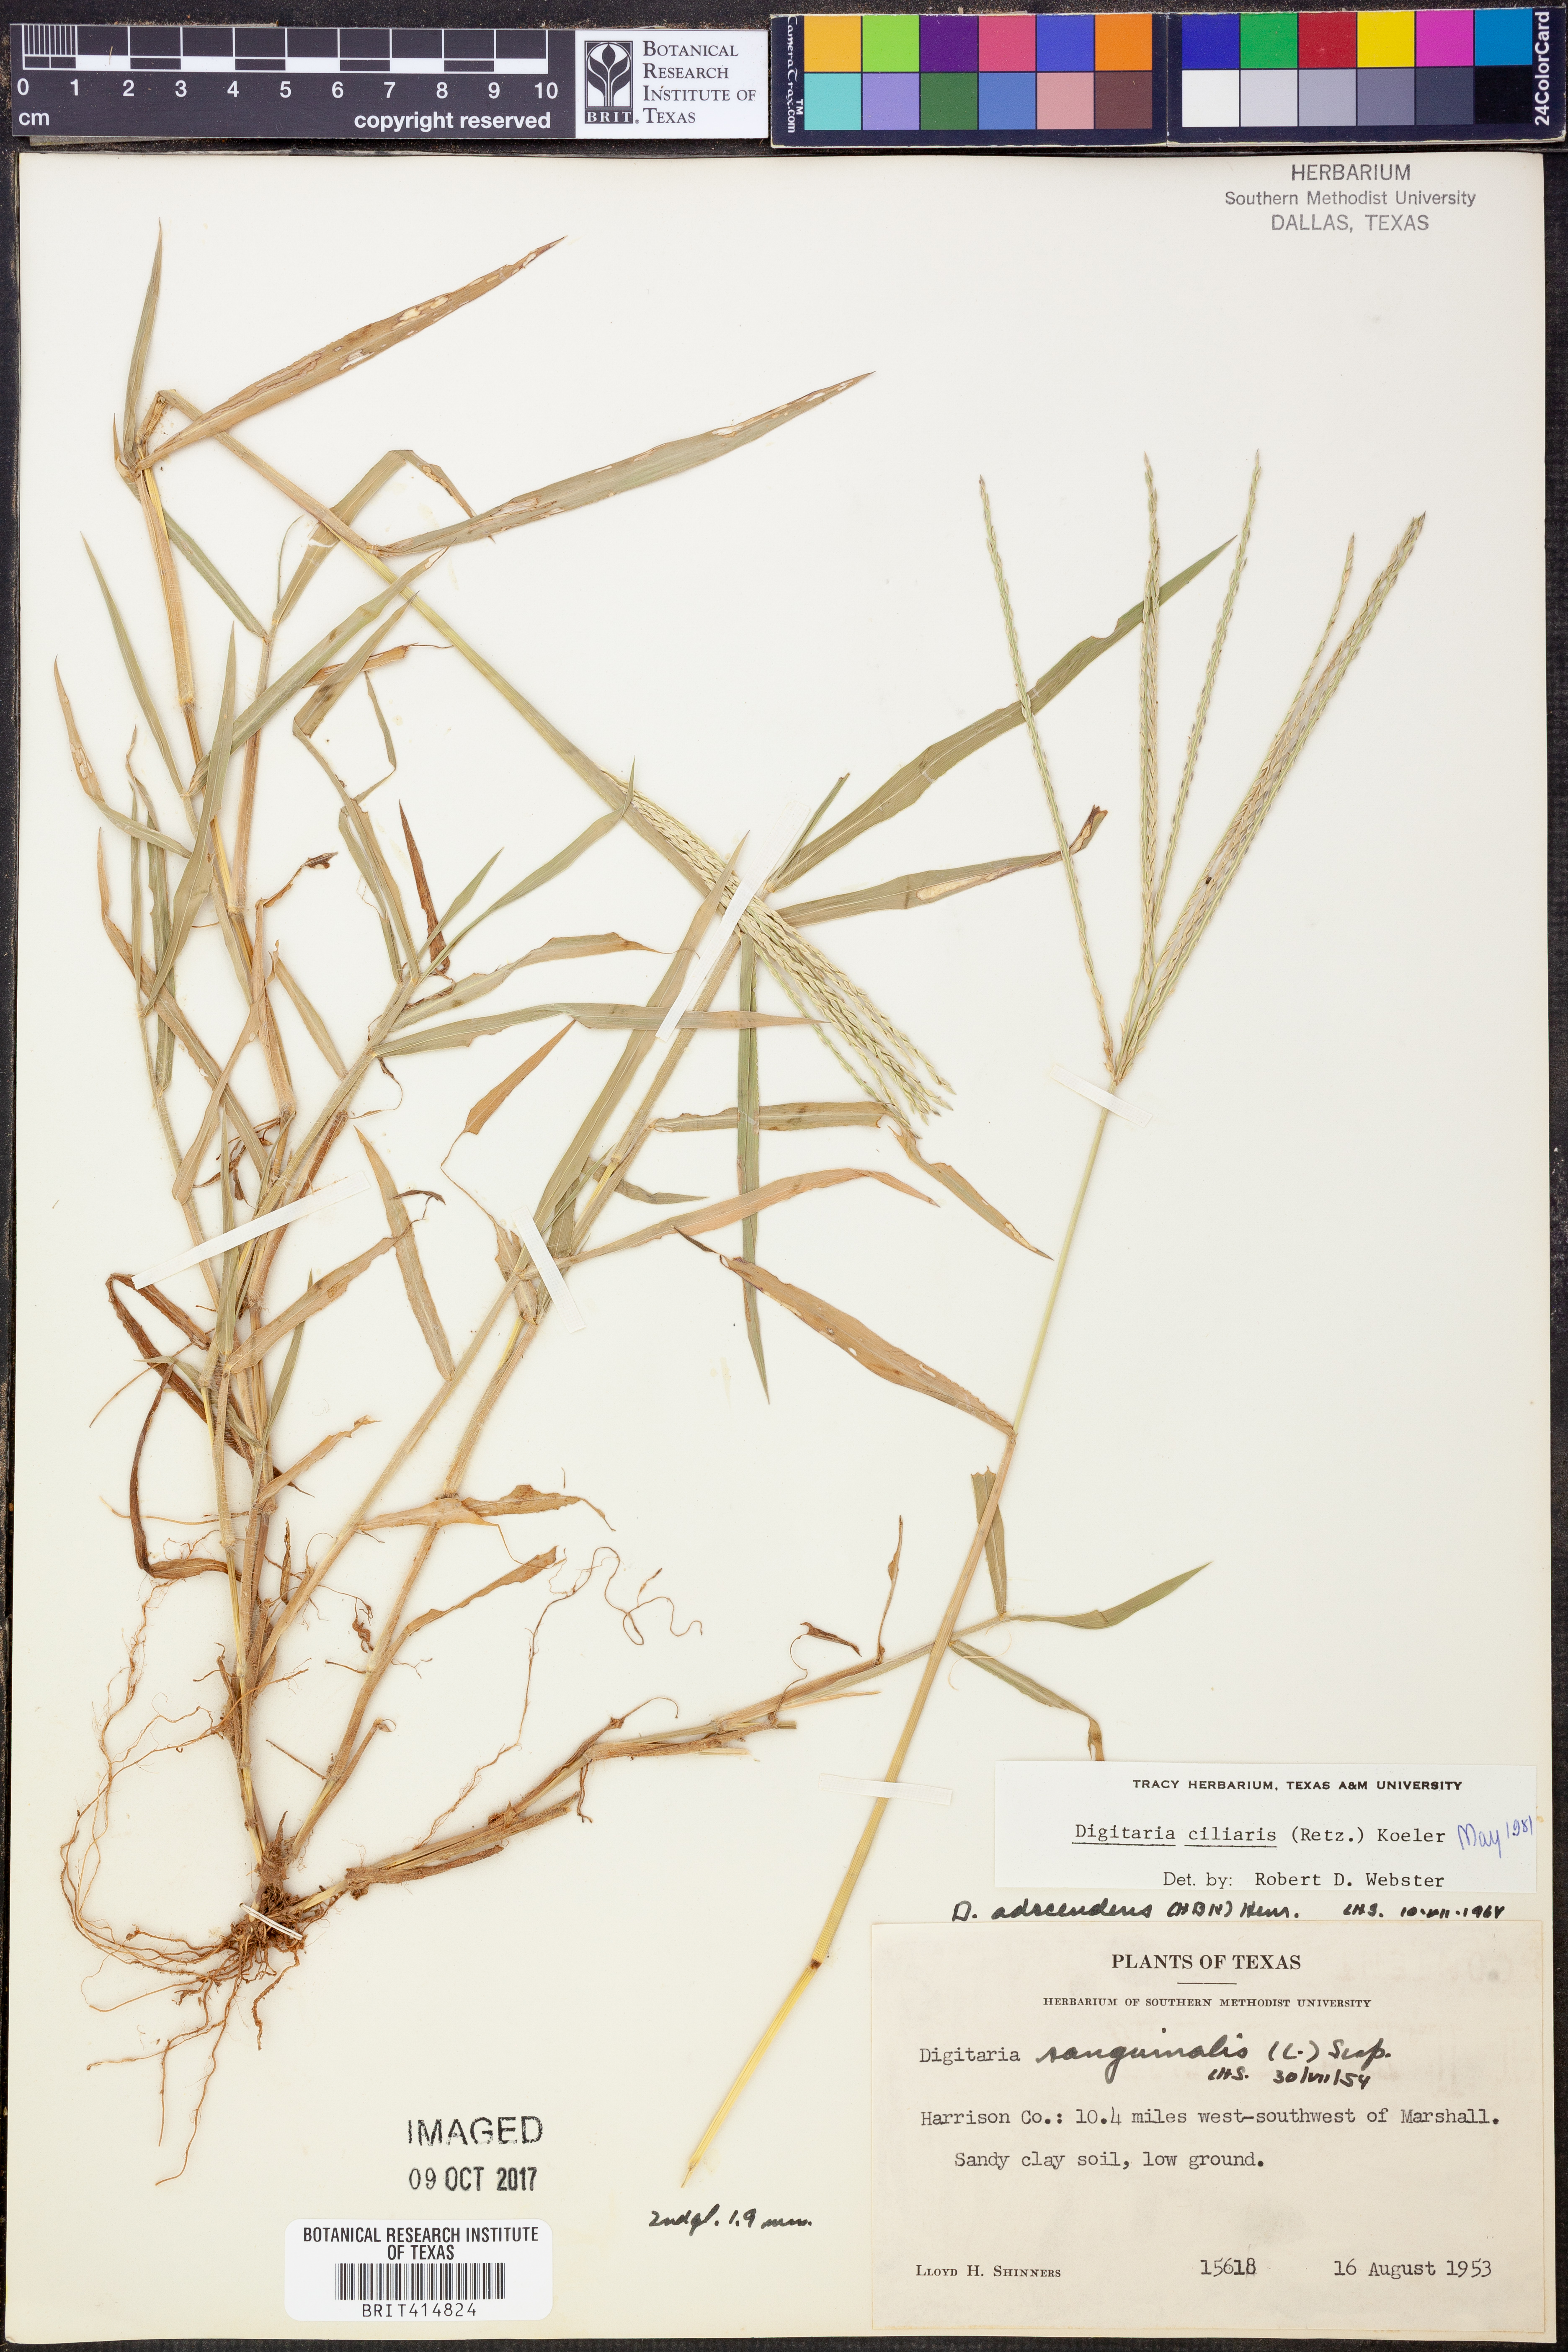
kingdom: Plantae
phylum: Tracheophyta
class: Liliopsida
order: Poales
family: Poaceae
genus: Digitaria
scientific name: Digitaria ciliaris
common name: Tropical finger-grass
